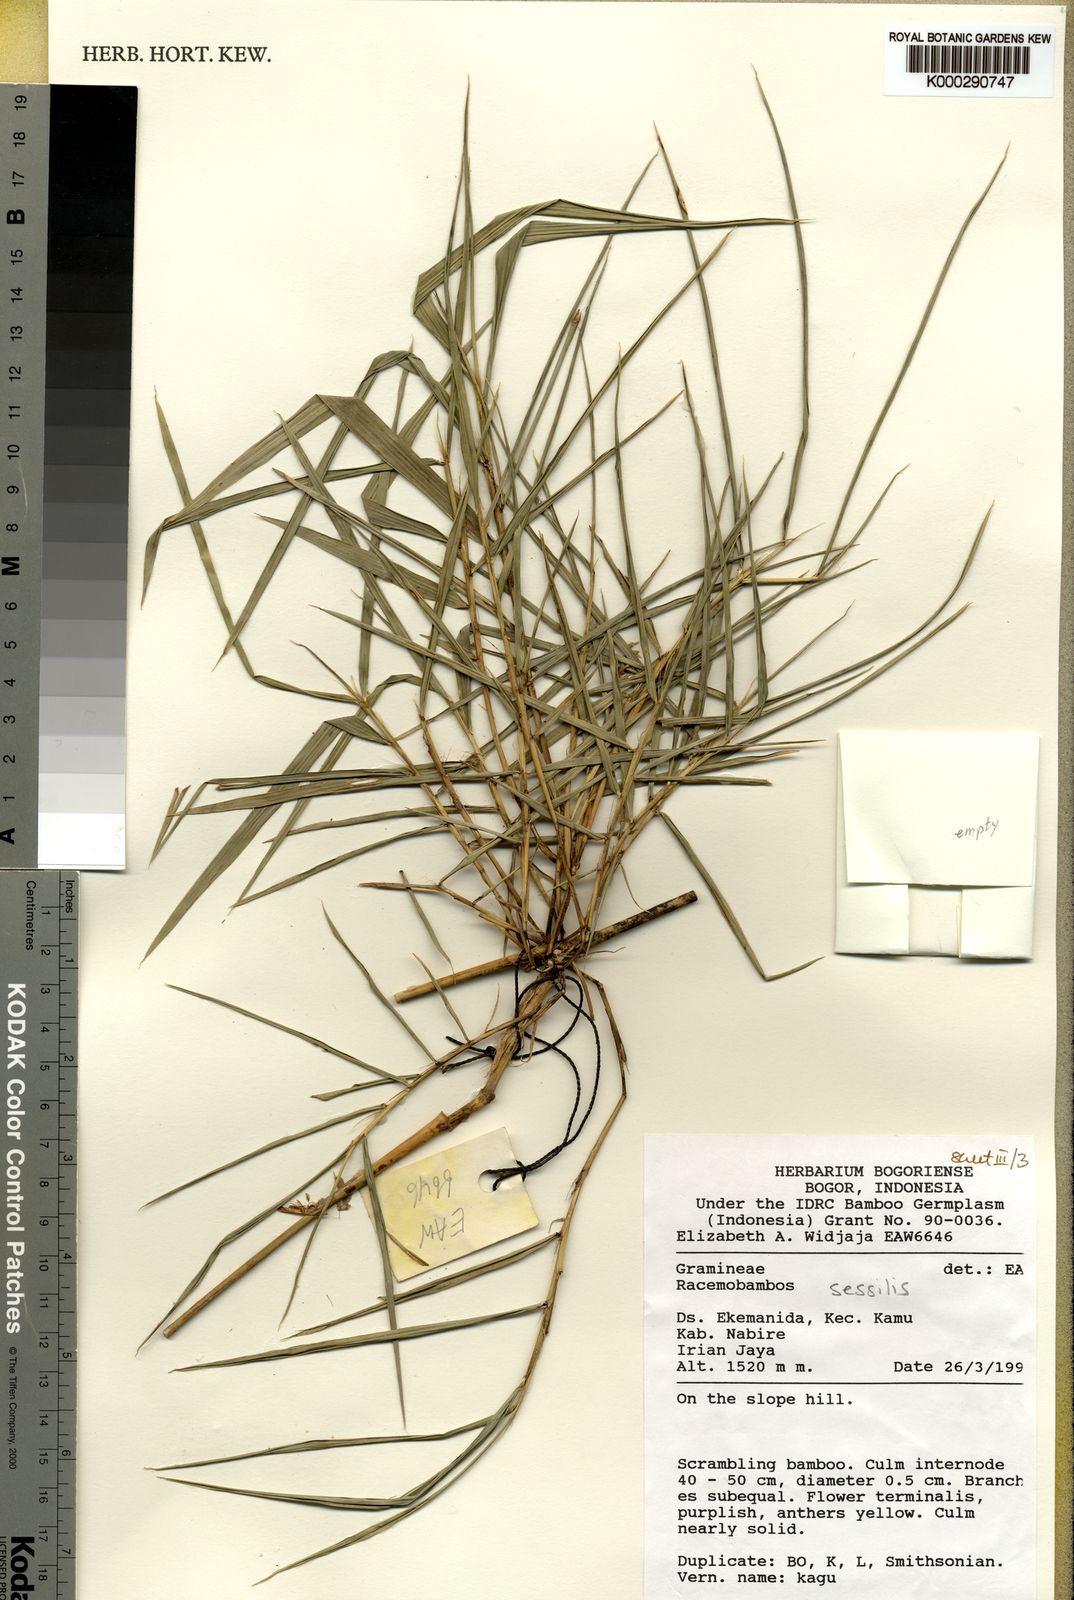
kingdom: Plantae
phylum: Tracheophyta
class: Liliopsida
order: Poales
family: Poaceae
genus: Racemobambos
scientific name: Racemobambos sessilis
